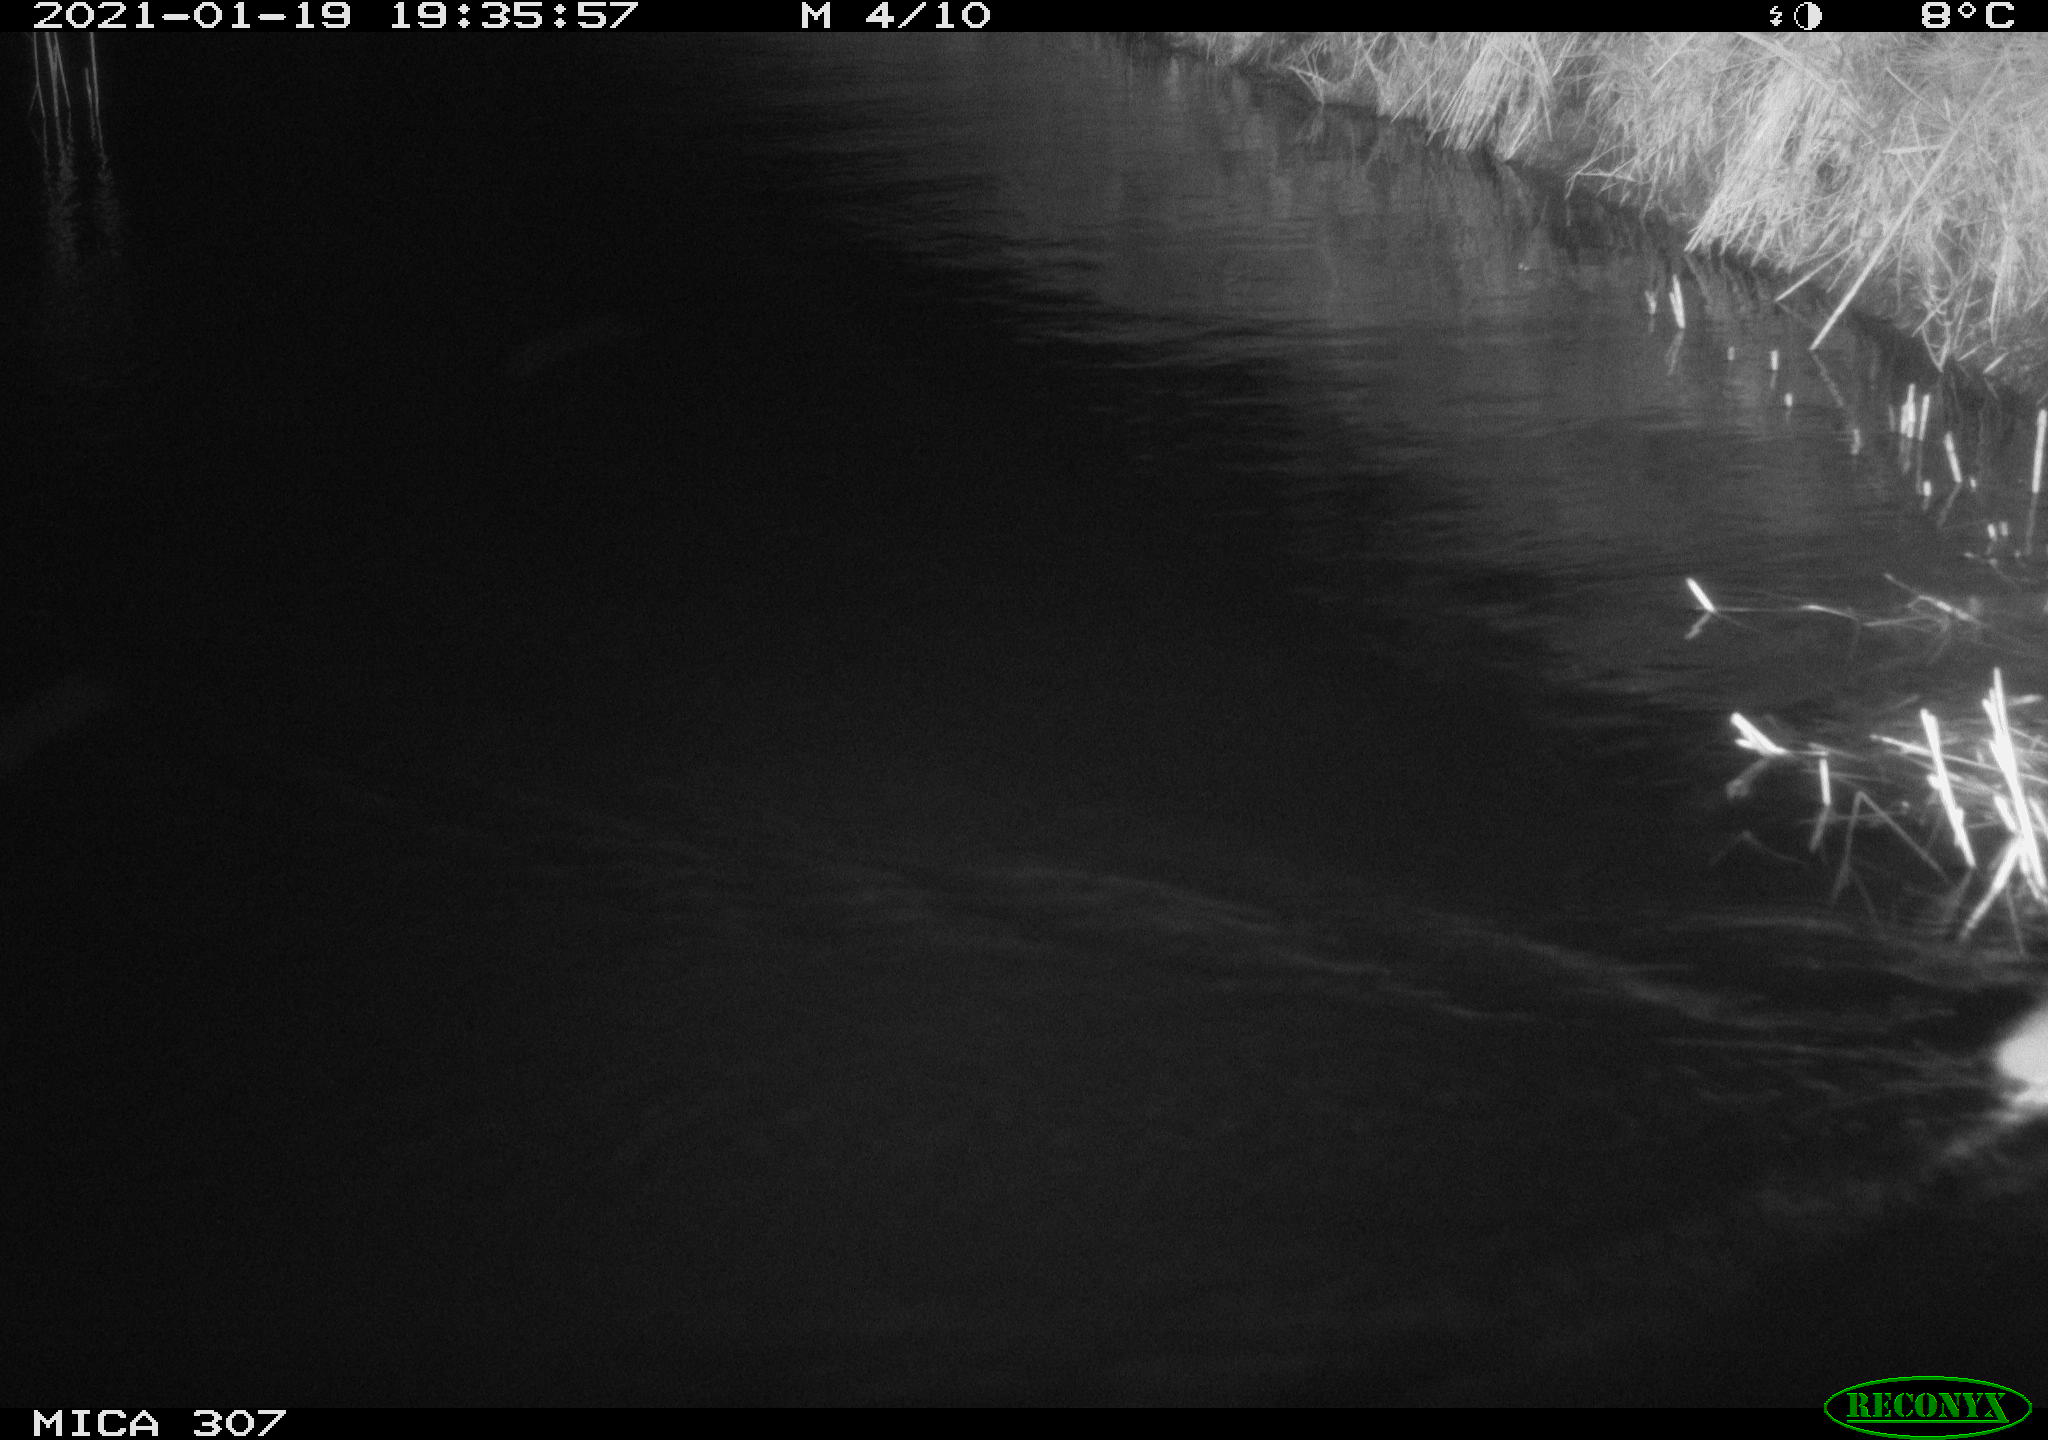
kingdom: Animalia
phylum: Chordata
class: Mammalia
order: Rodentia
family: Muridae
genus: Rattus
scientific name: Rattus norvegicus
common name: Brown rat
